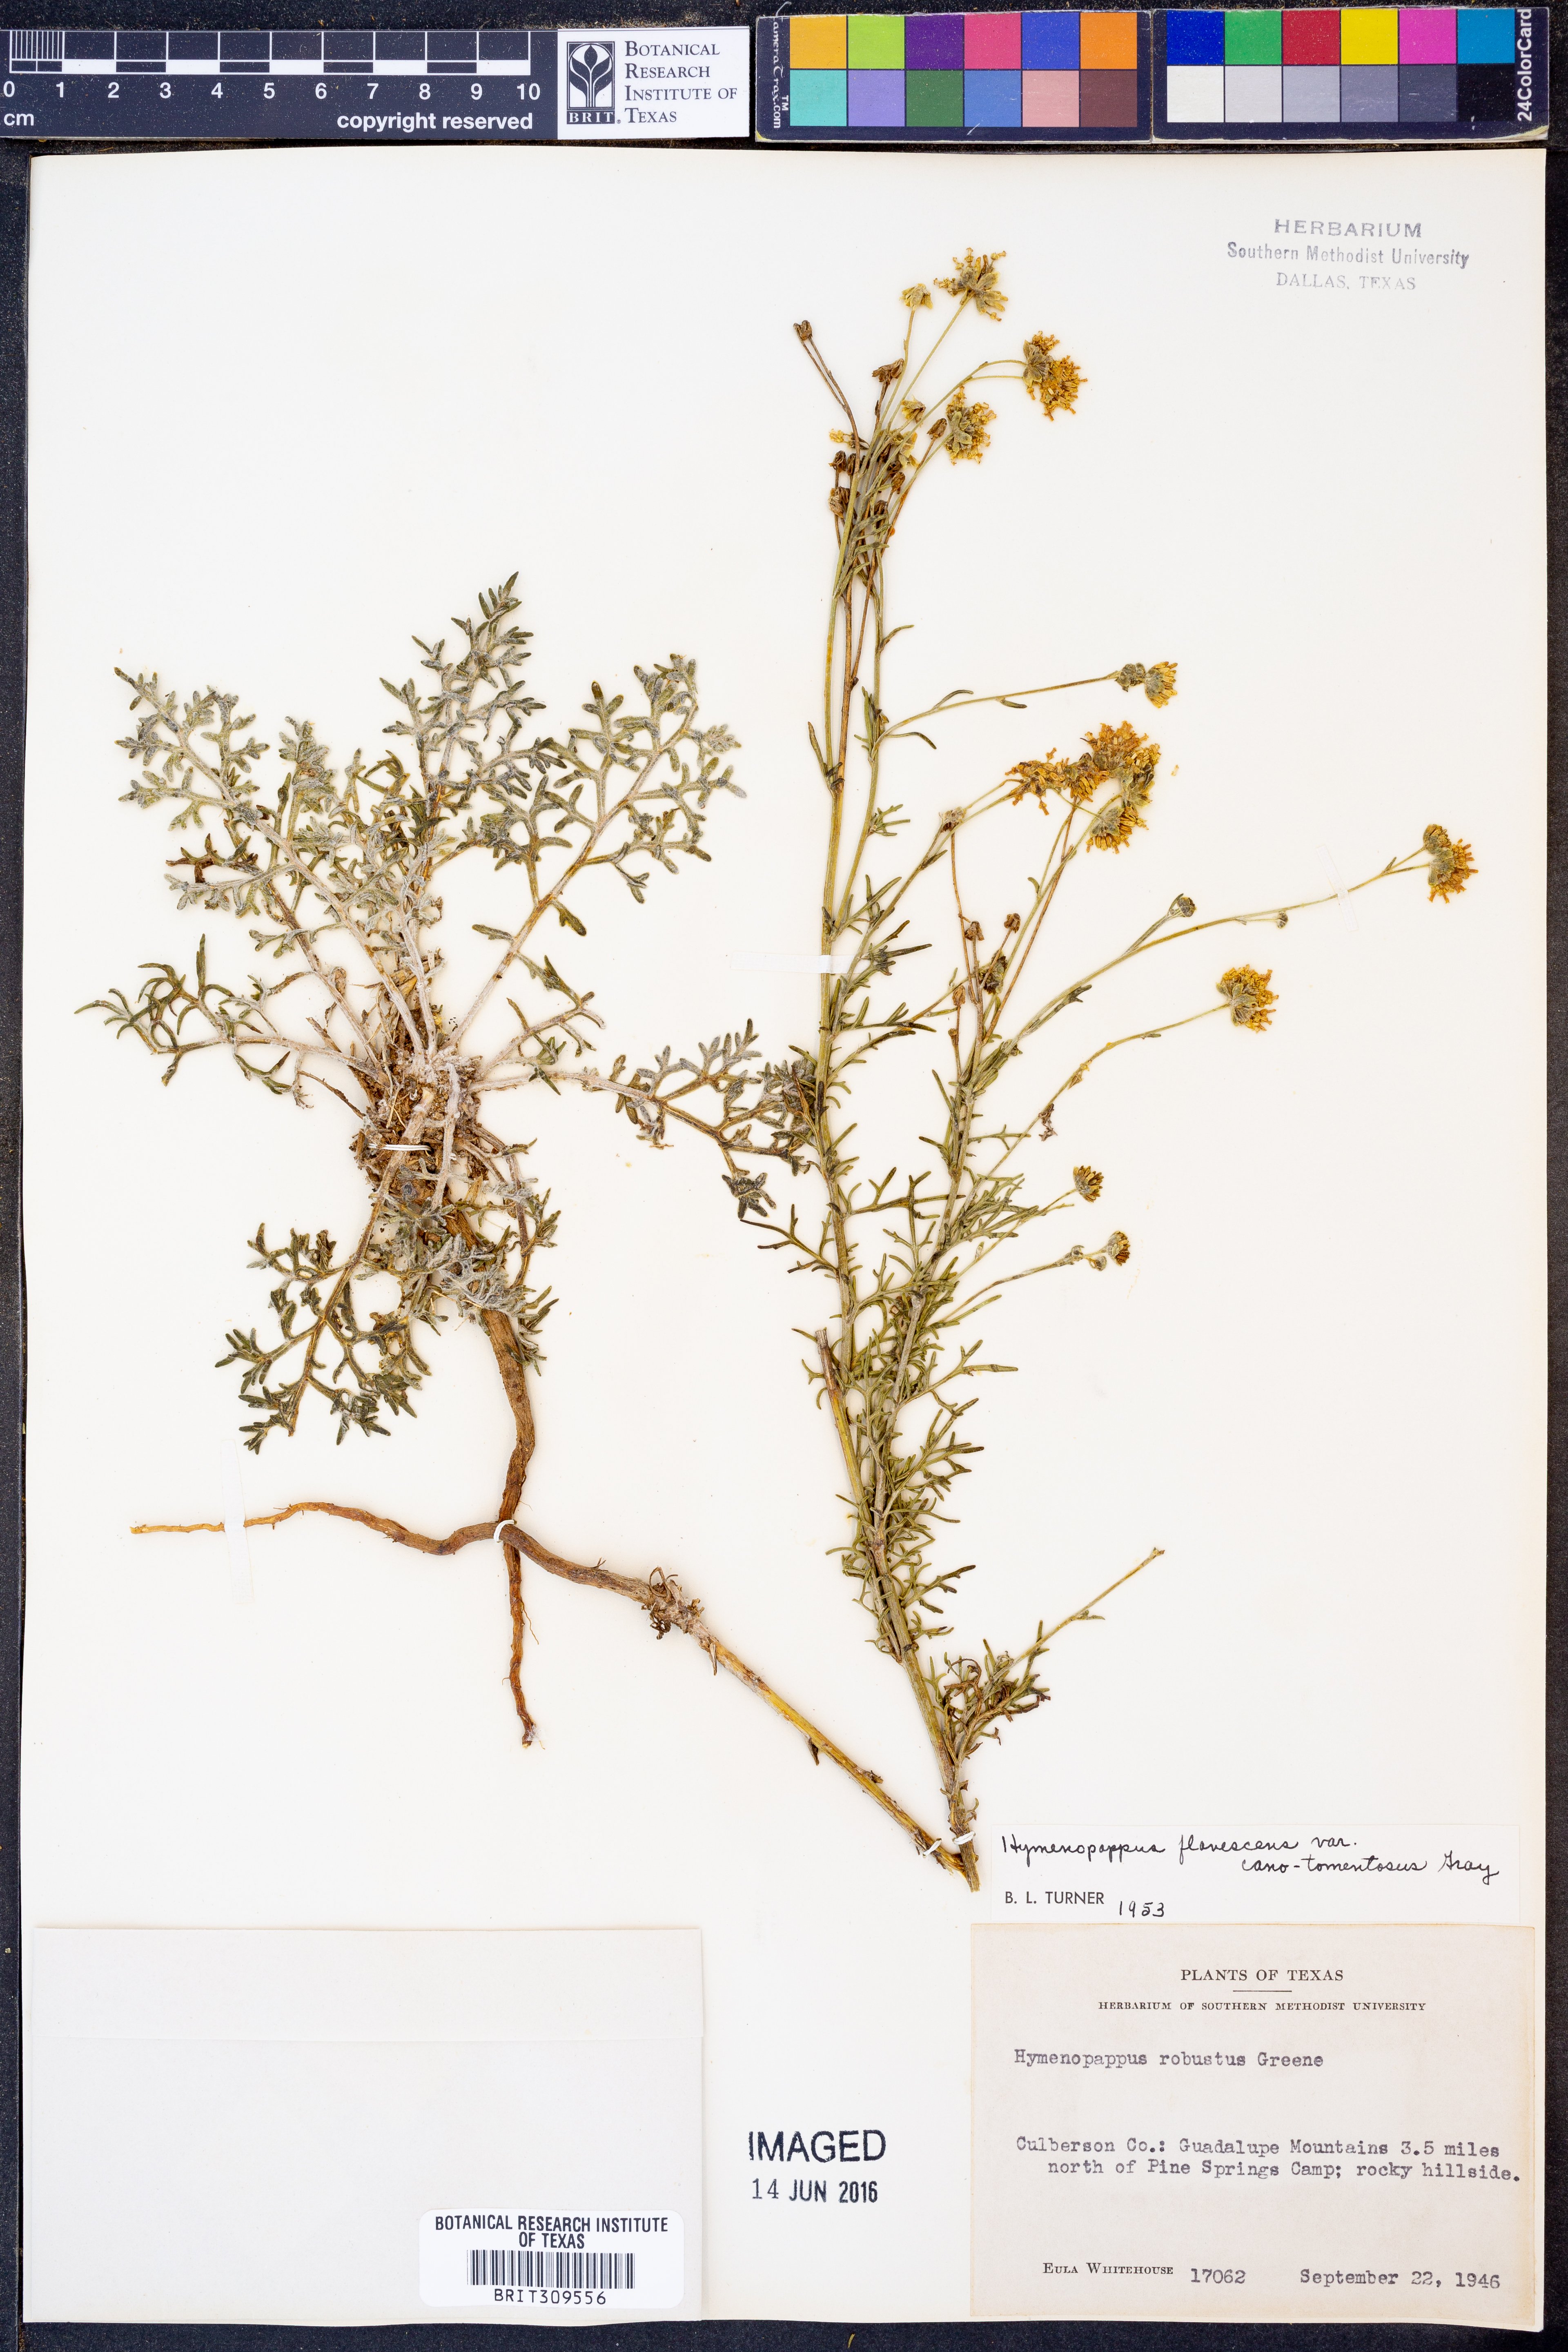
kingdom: Plantae
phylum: Tracheophyta
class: Magnoliopsida
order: Asterales
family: Asteraceae
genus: Hymenopappus
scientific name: Hymenopappus flavescens
